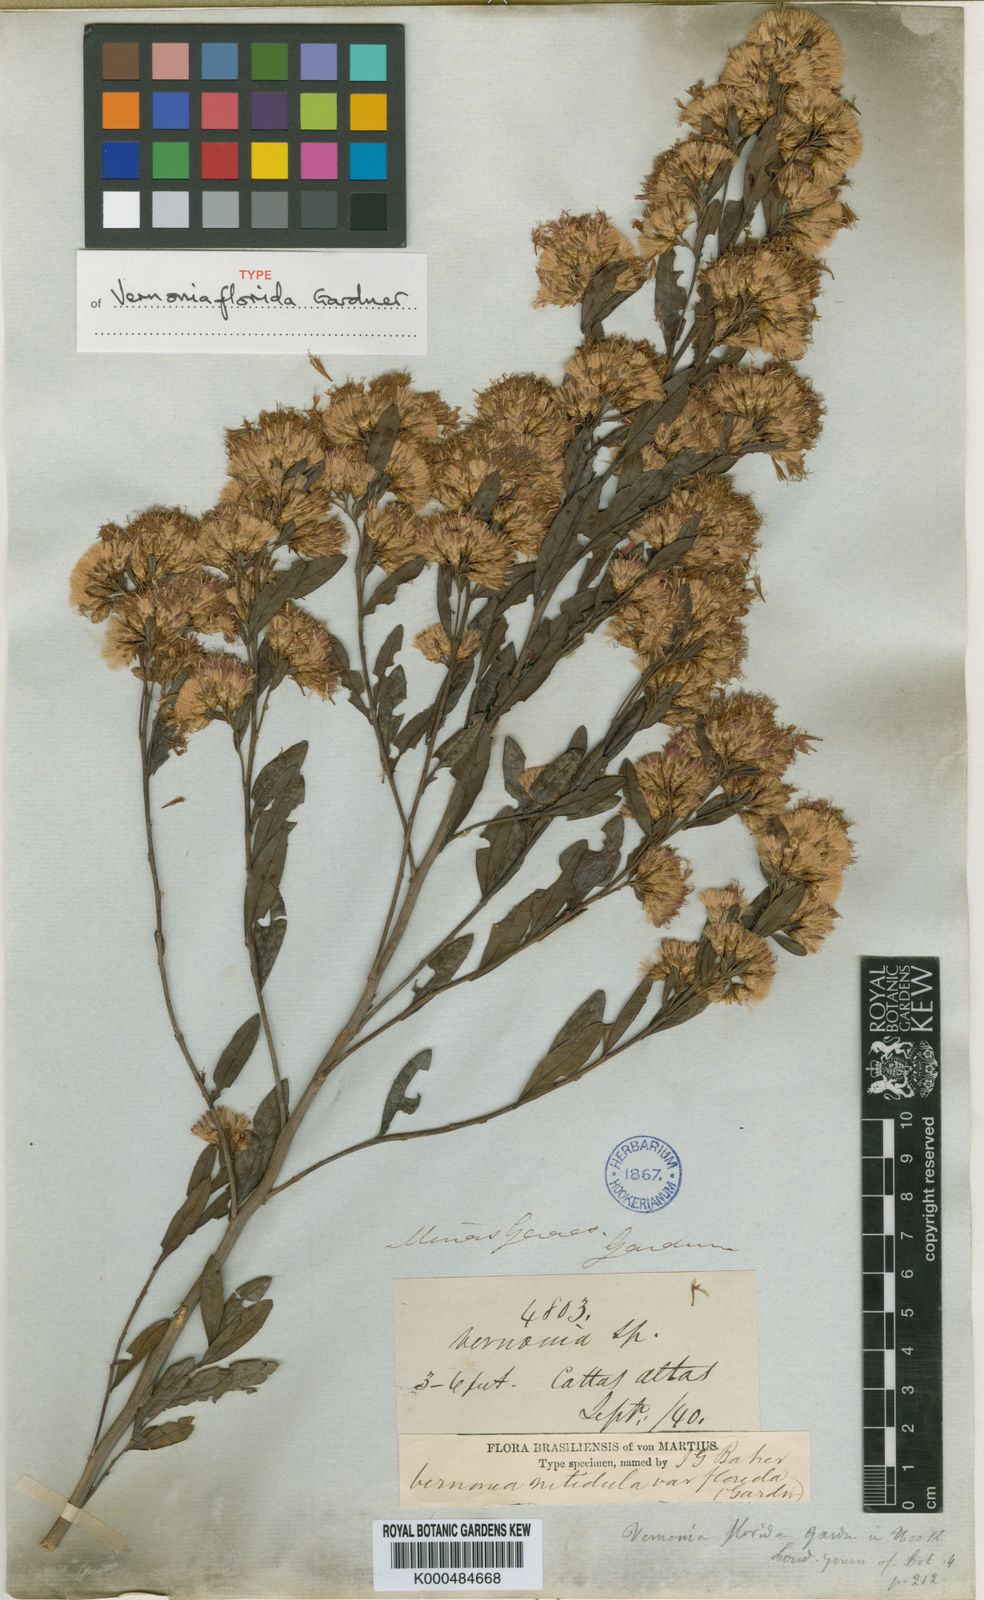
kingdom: Plantae
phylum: Tracheophyta
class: Magnoliopsida
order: Asterales
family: Asteraceae
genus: Vernonanthura
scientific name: Vernonanthura montevidensis
